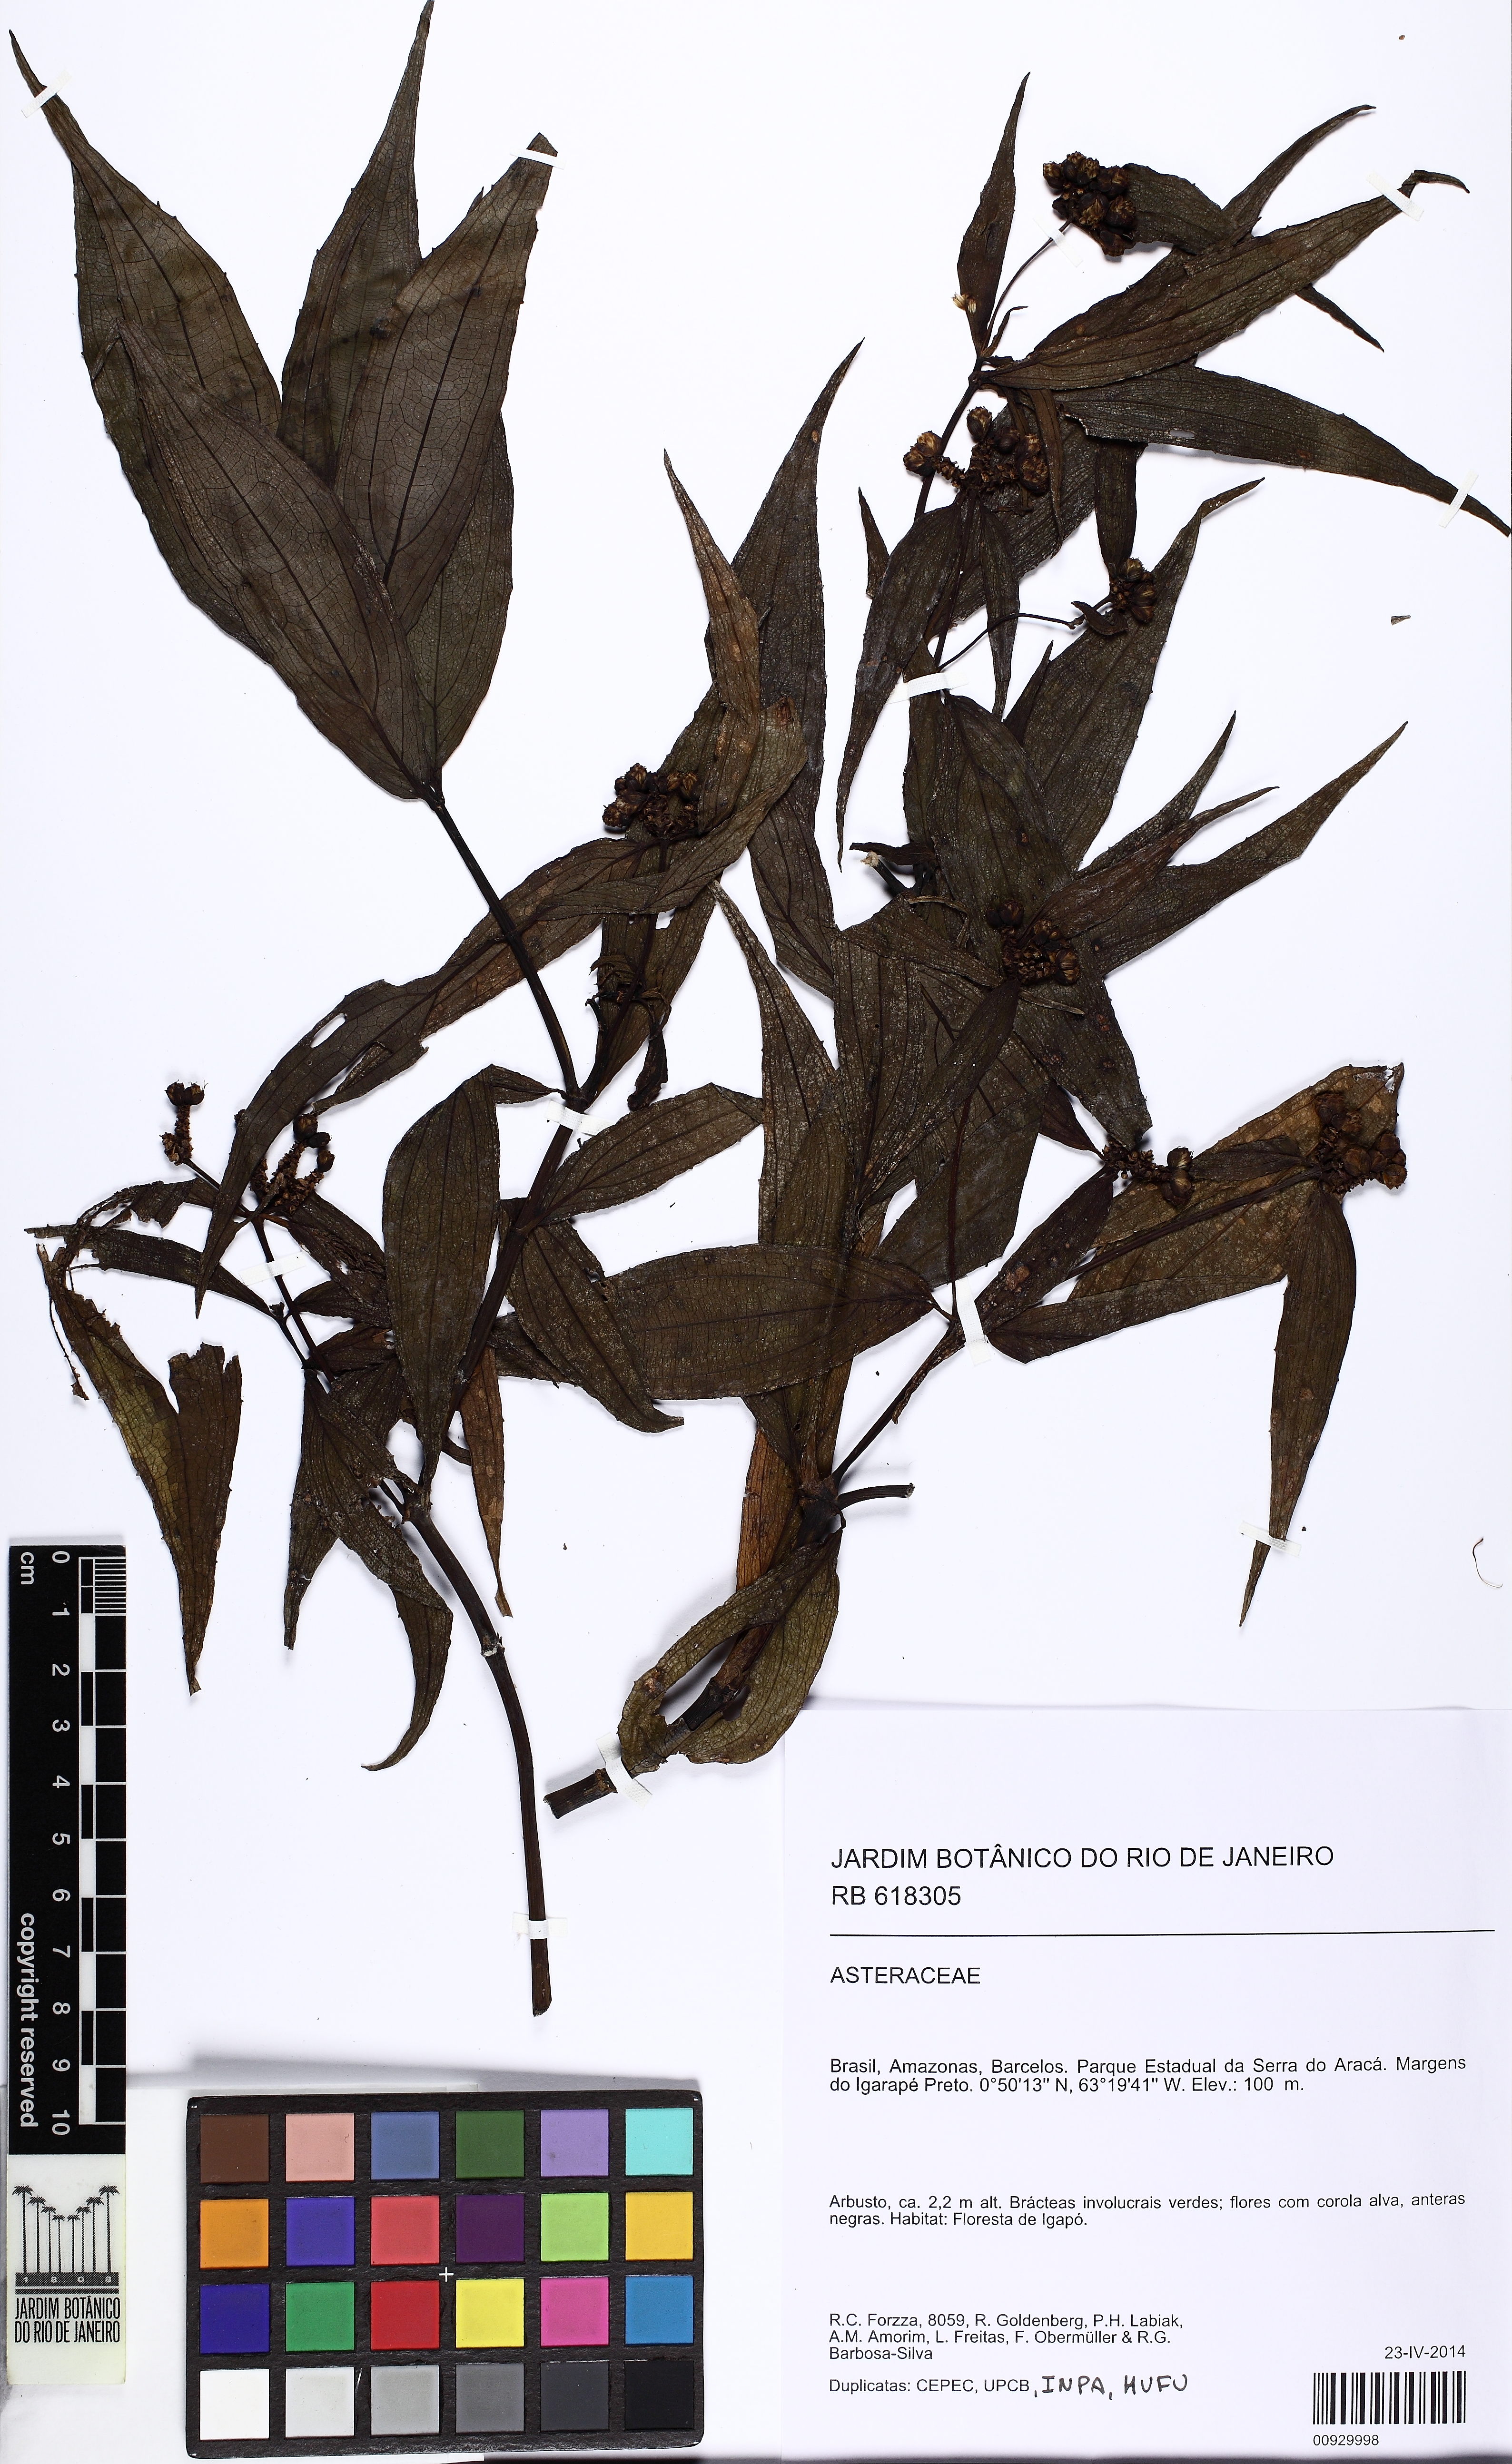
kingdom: Plantae
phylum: Tracheophyta
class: Magnoliopsida
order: Asterales
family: Asteraceae
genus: Ichthyothere
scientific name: Ichthyothere terminalis
